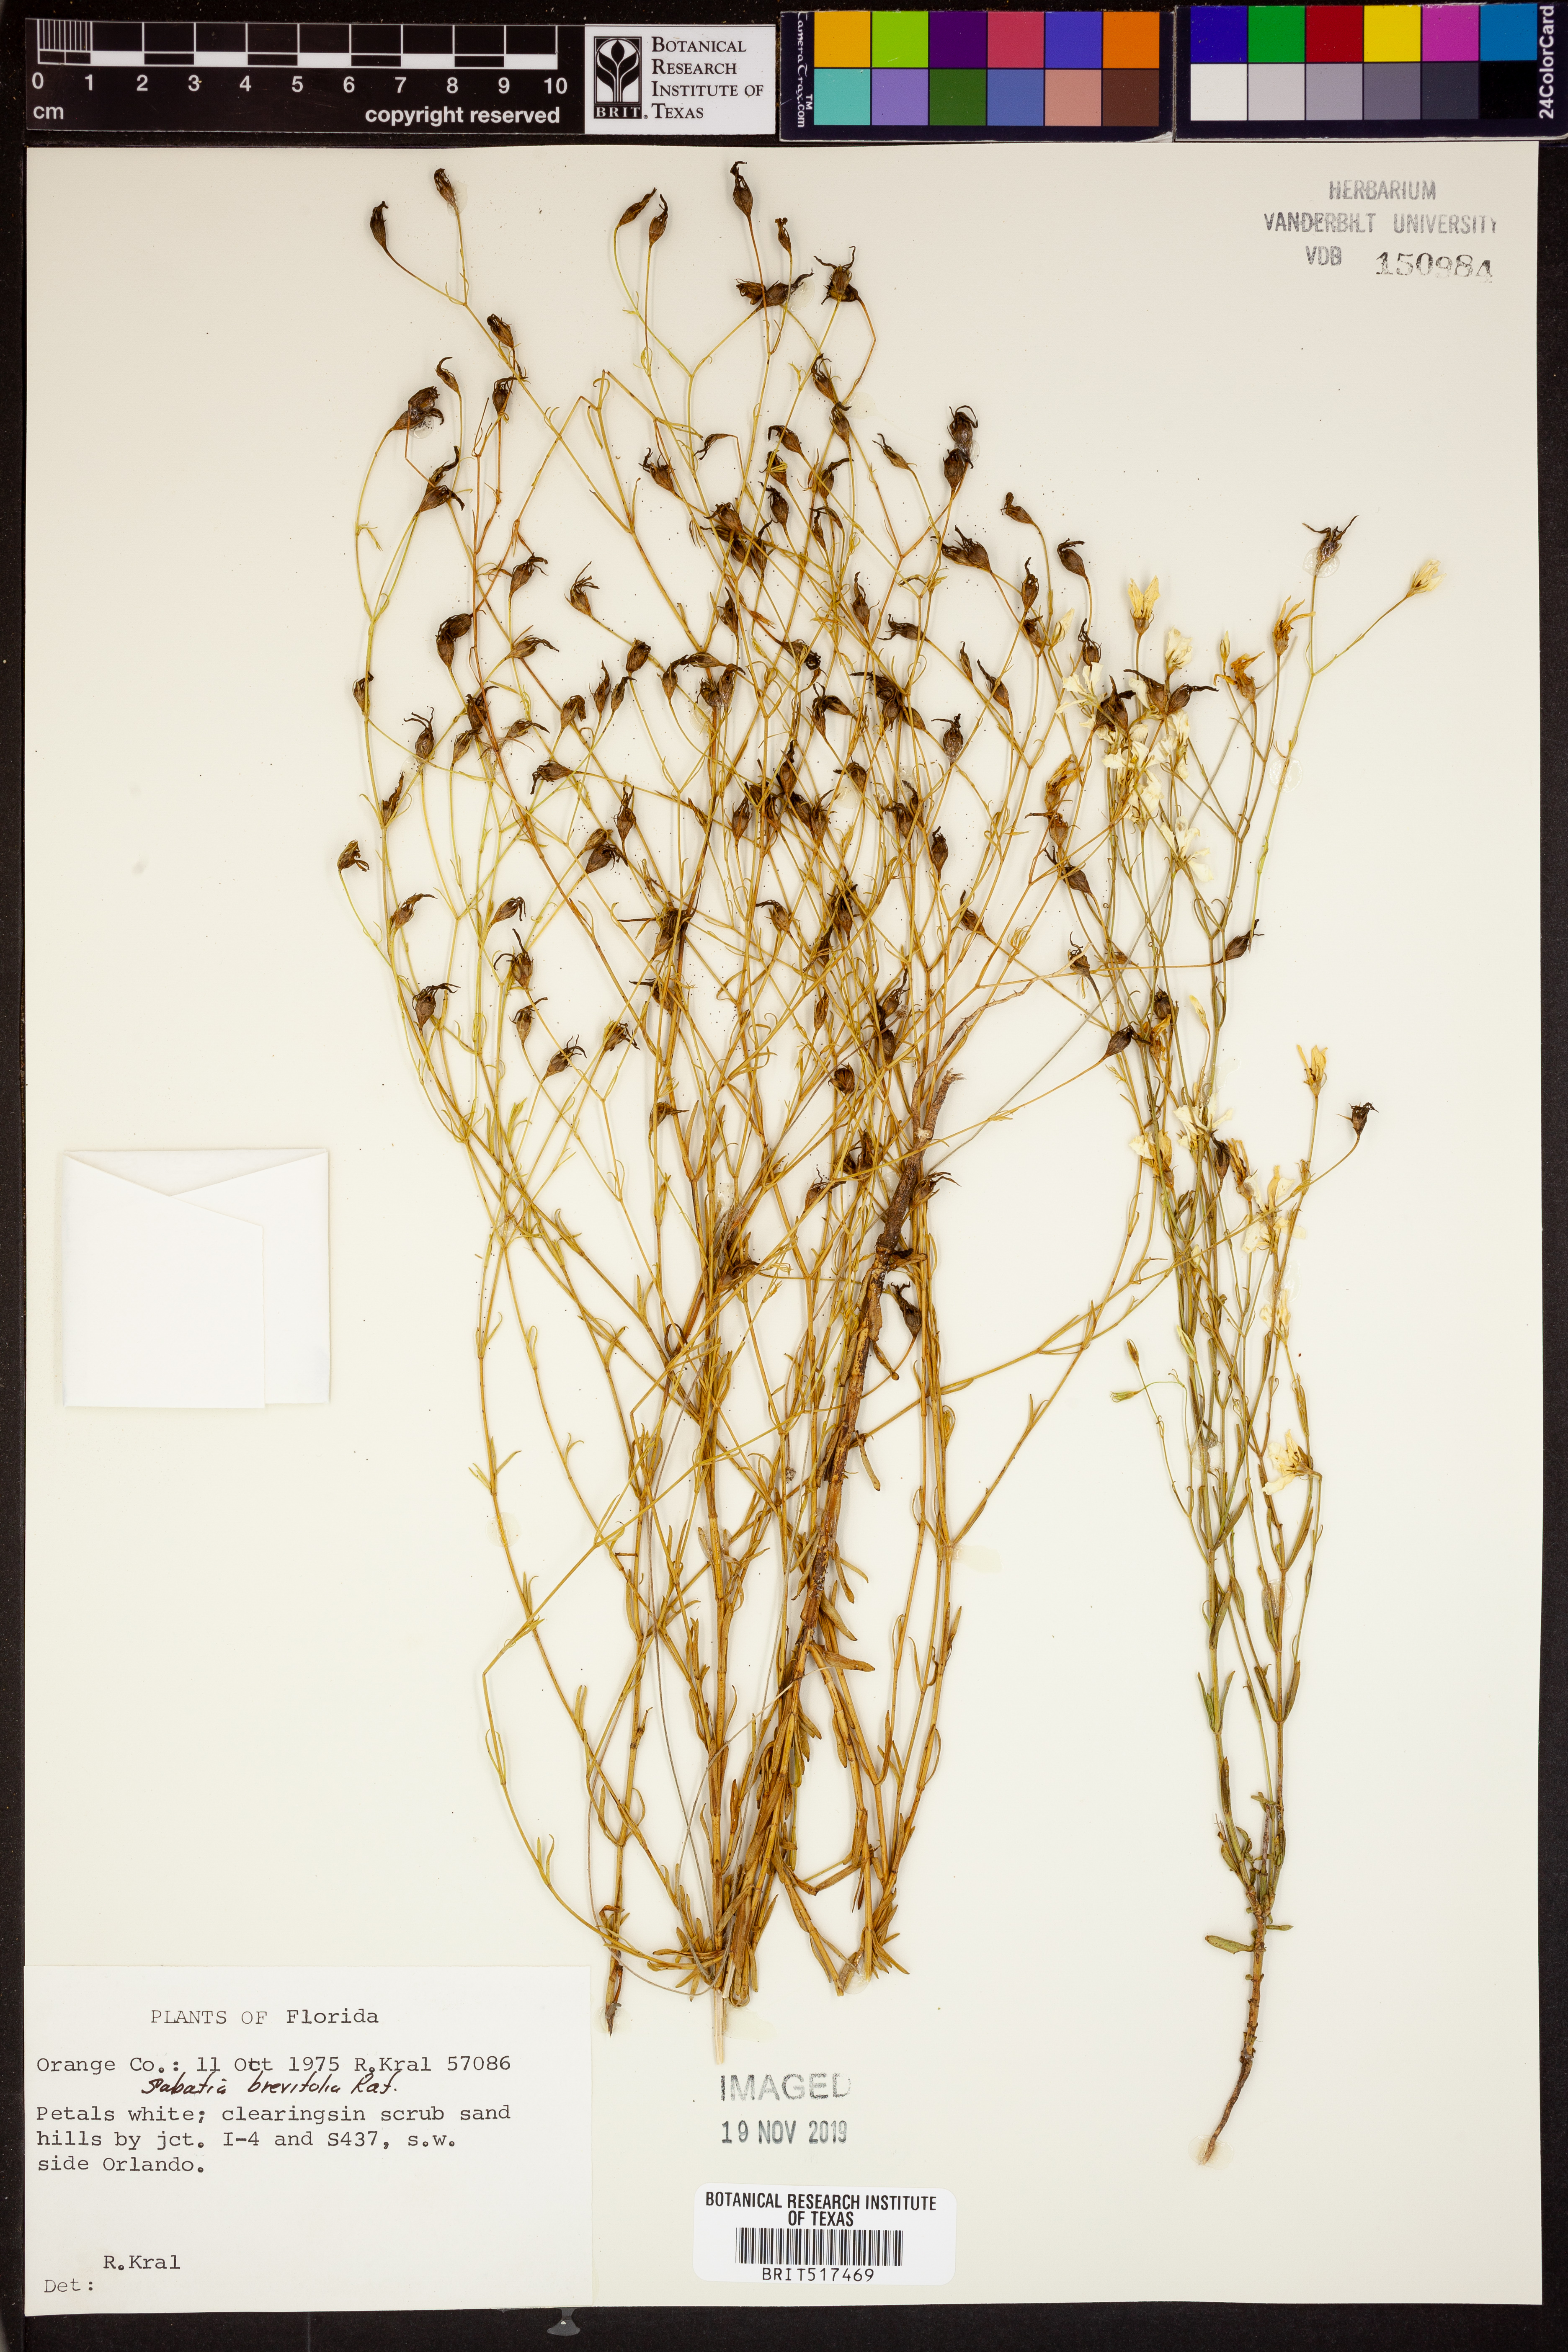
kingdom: Plantae
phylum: Tracheophyta
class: Magnoliopsida
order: Gentianales
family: Gentianaceae
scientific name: Gentianaceae
